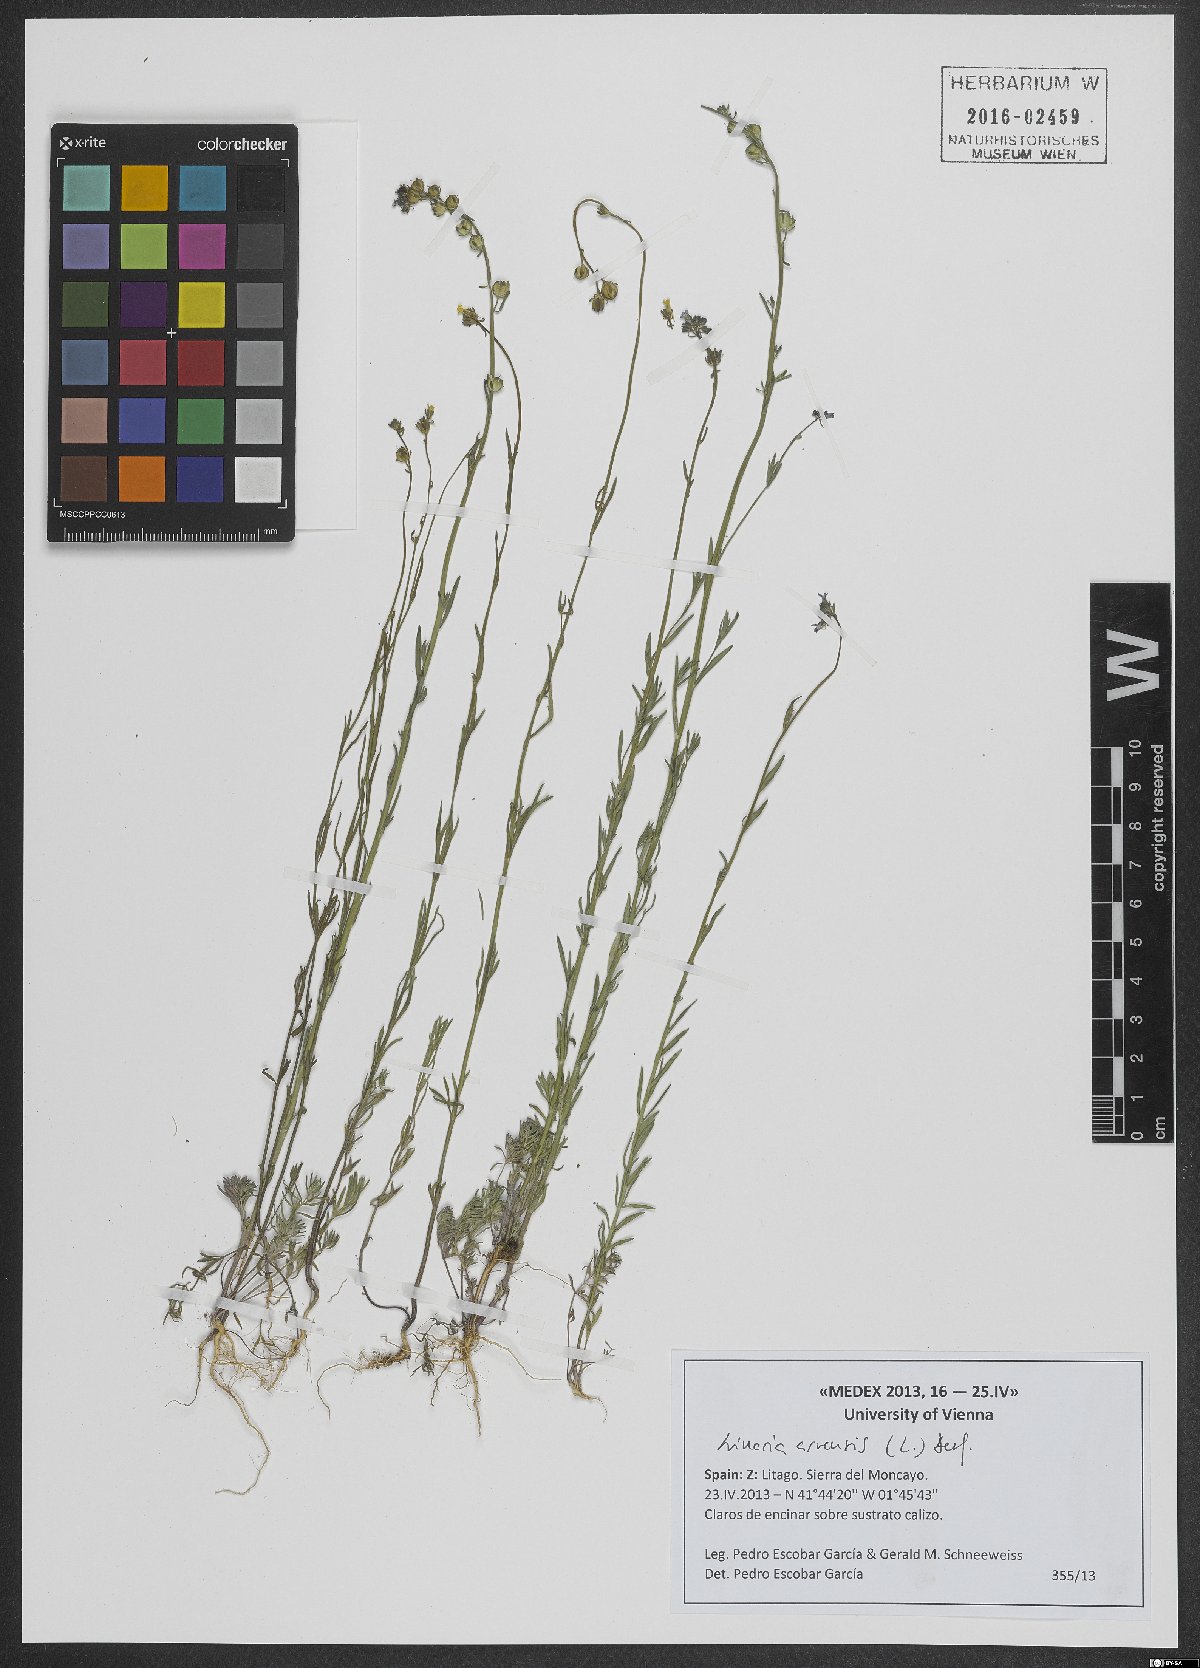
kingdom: Plantae
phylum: Tracheophyta
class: Magnoliopsida
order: Lamiales
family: Plantaginaceae
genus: Linaria
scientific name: Linaria arvensis
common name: Corn toadflax
